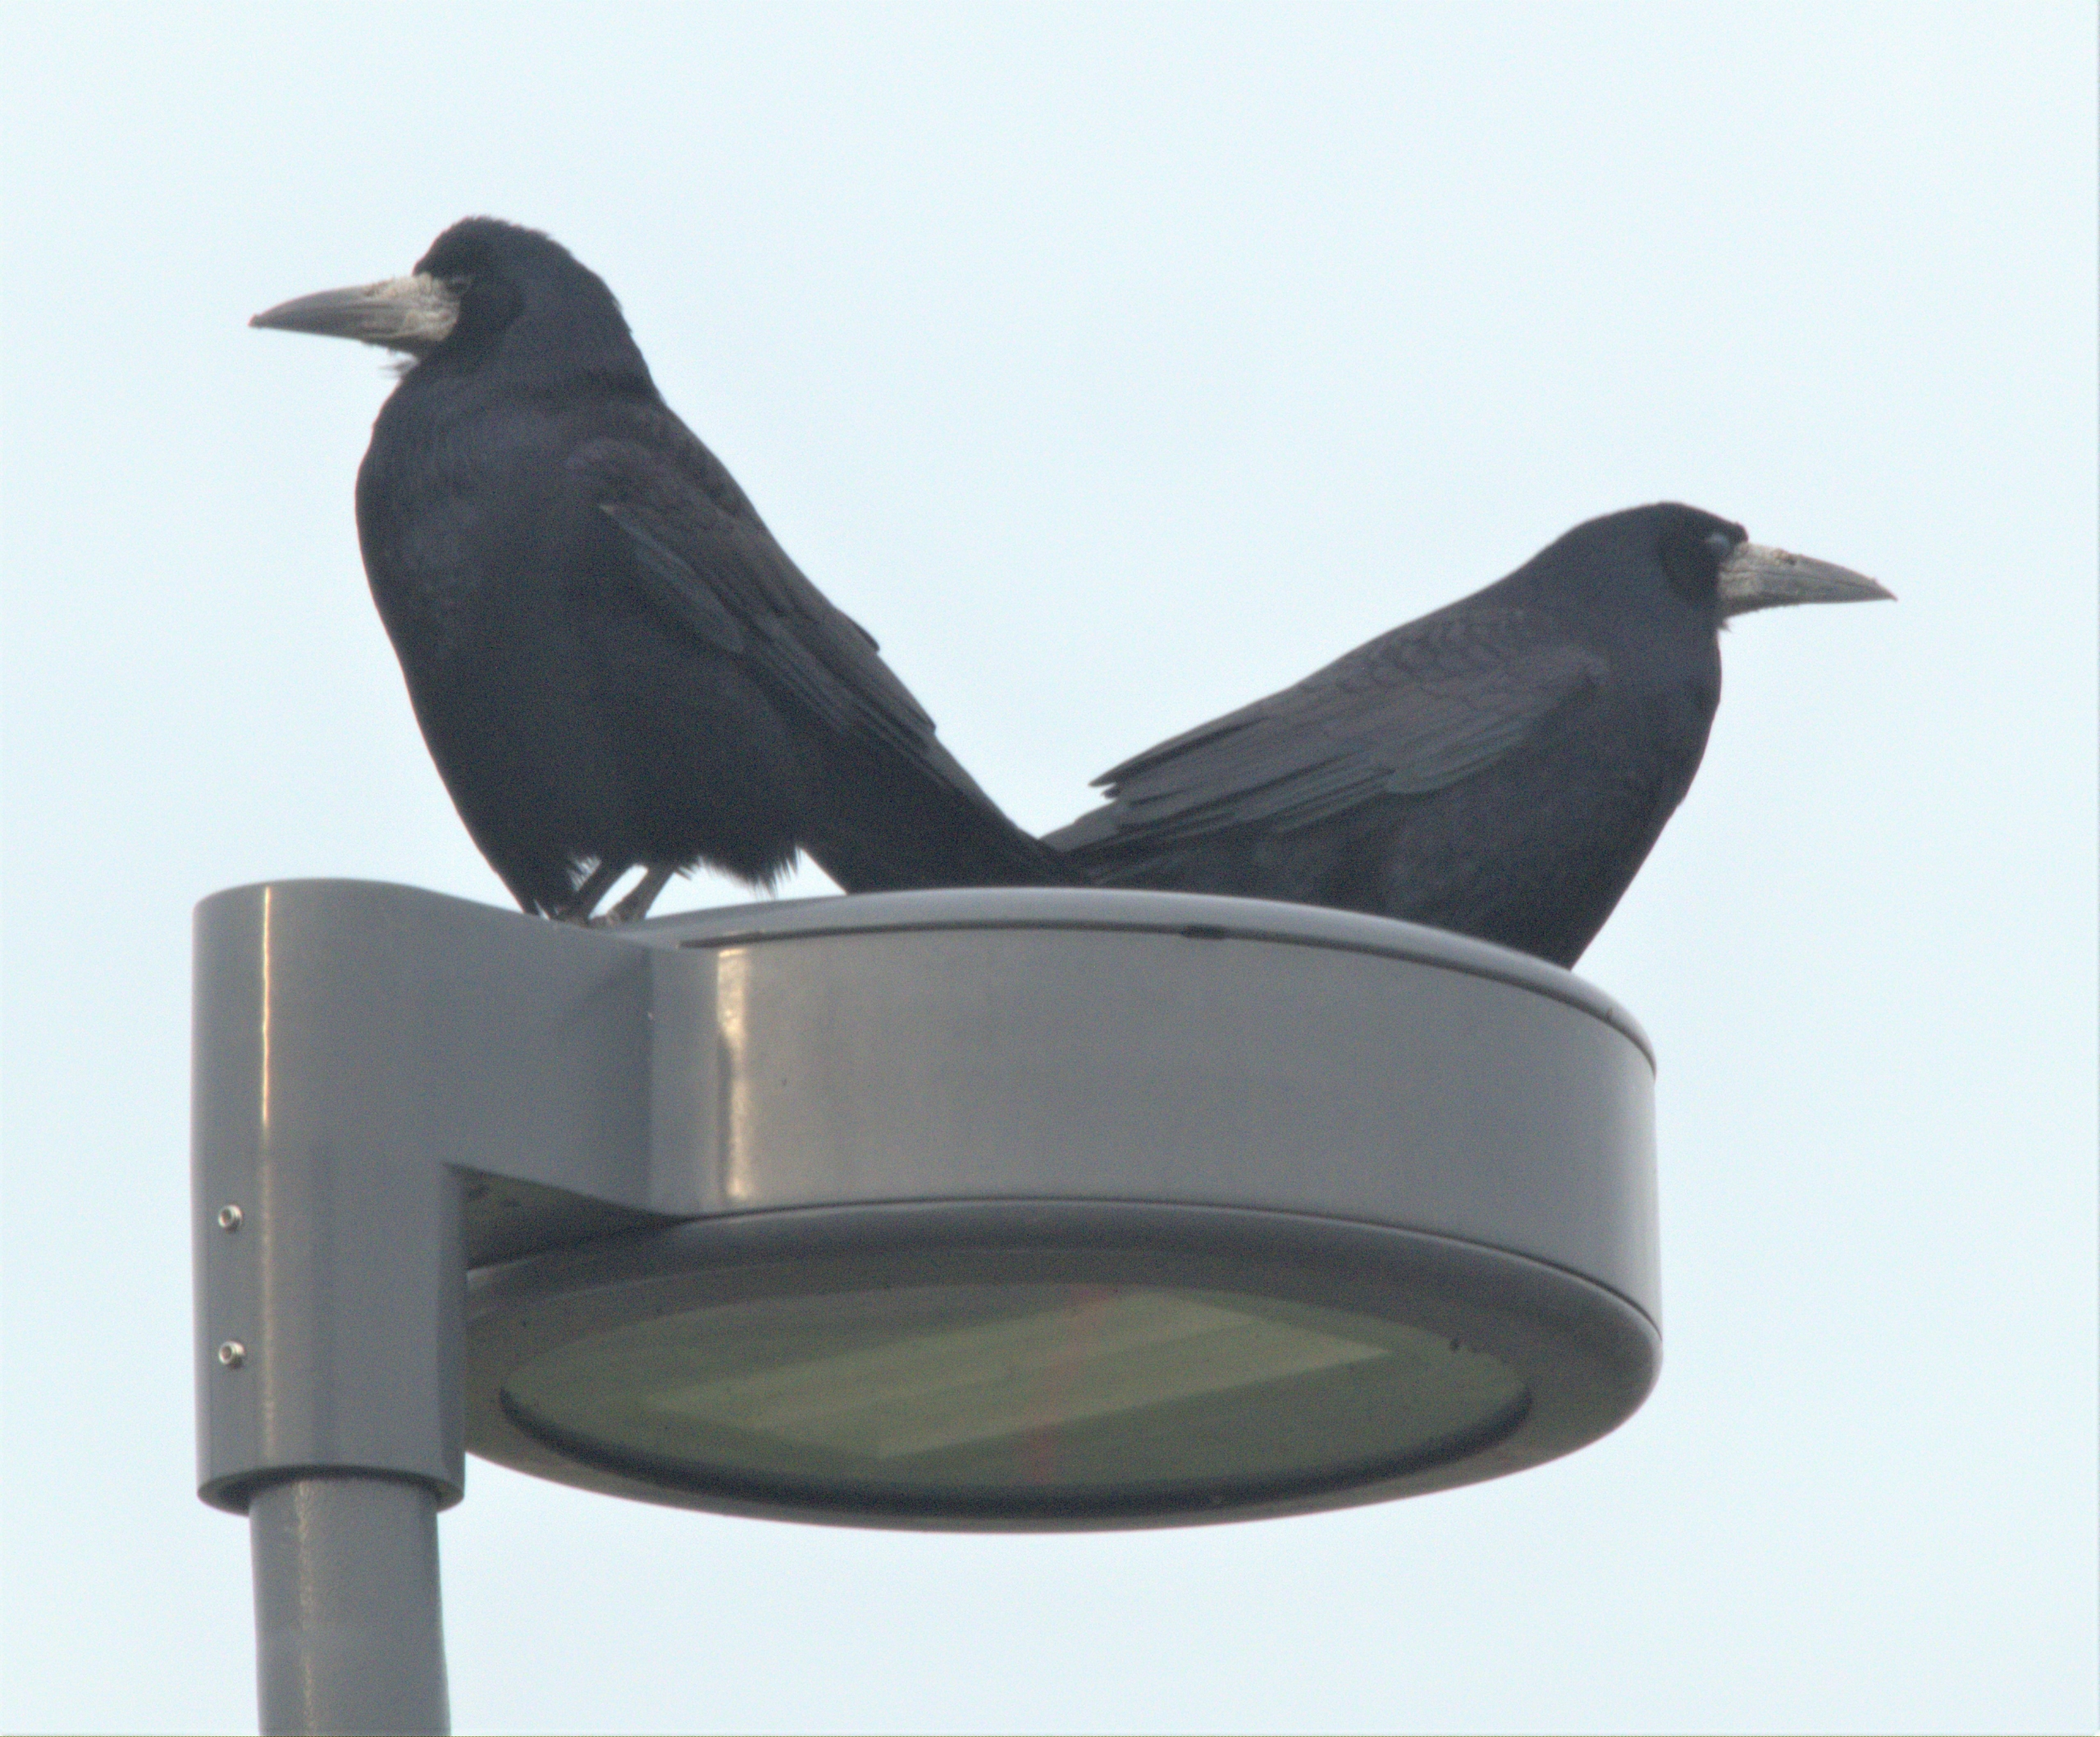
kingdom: Animalia
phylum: Chordata
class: Aves
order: Passeriformes
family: Corvidae
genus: Corvus
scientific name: Corvus frugilegus
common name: Råge
